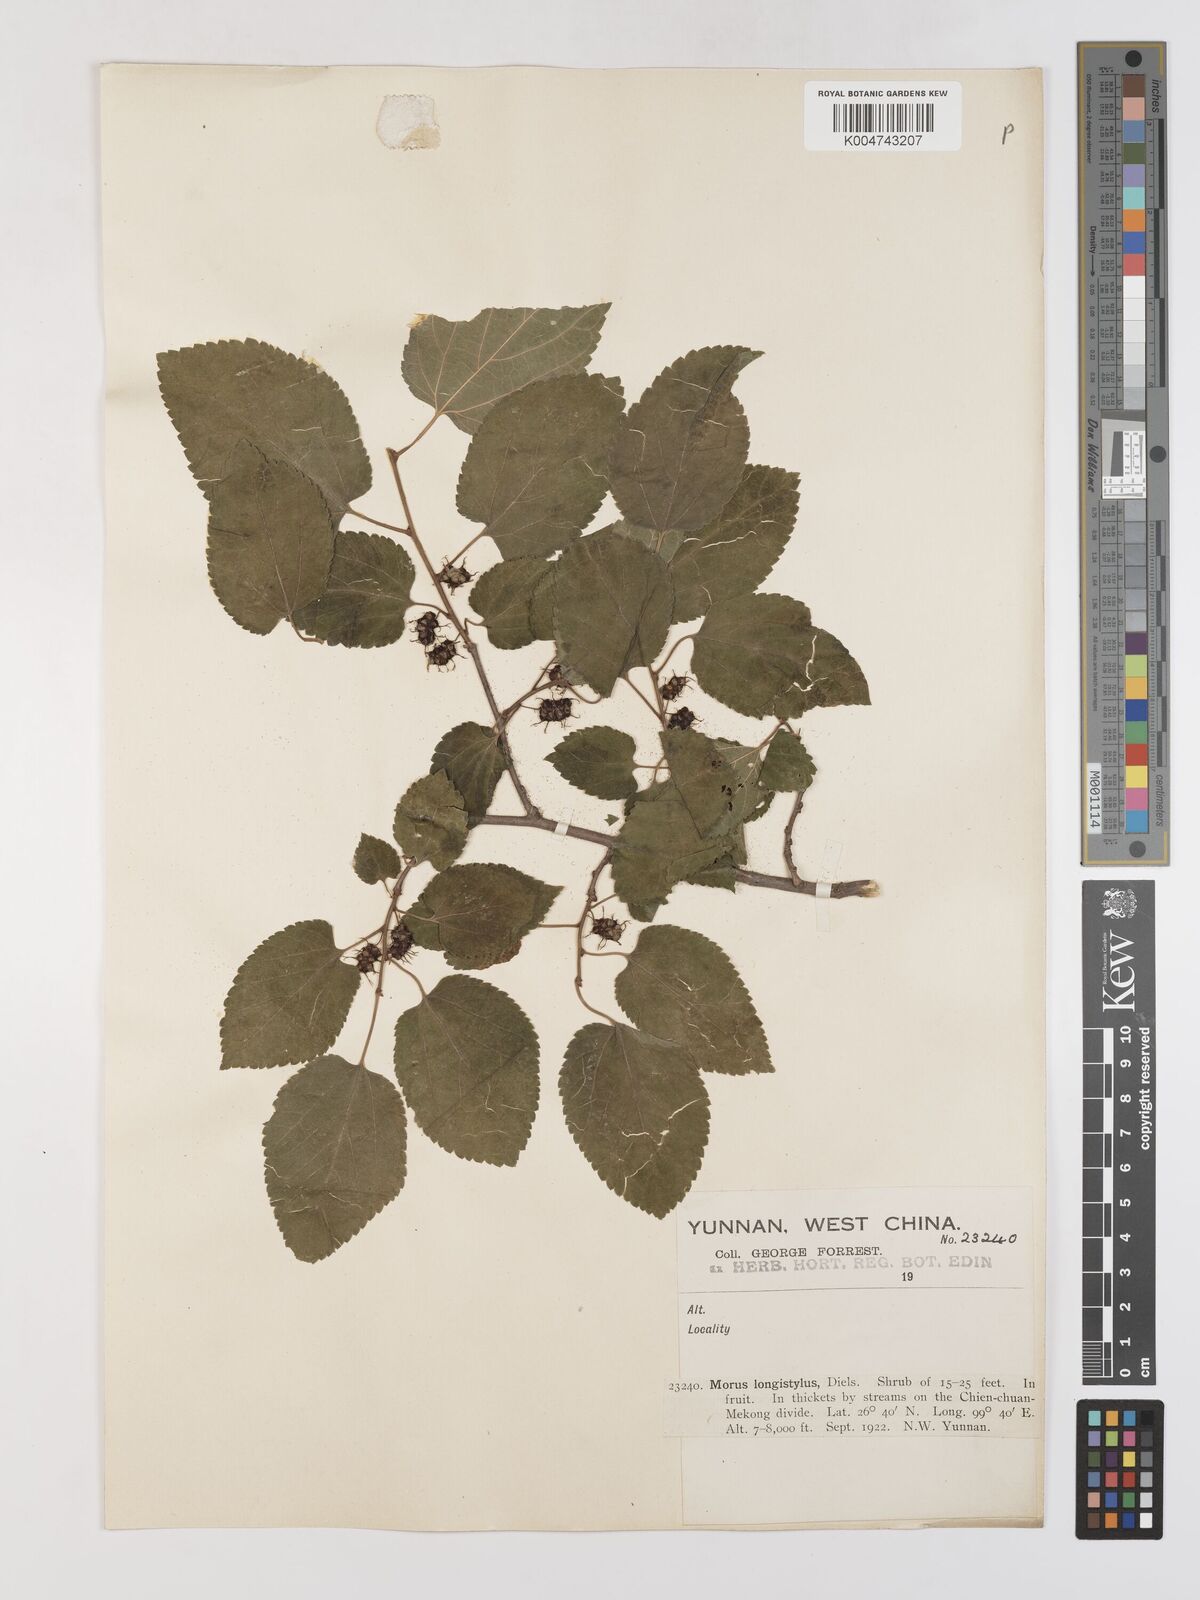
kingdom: Plantae
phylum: Tracheophyta
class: Magnoliopsida
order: Rosales
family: Moraceae
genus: Morus
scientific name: Morus indica
